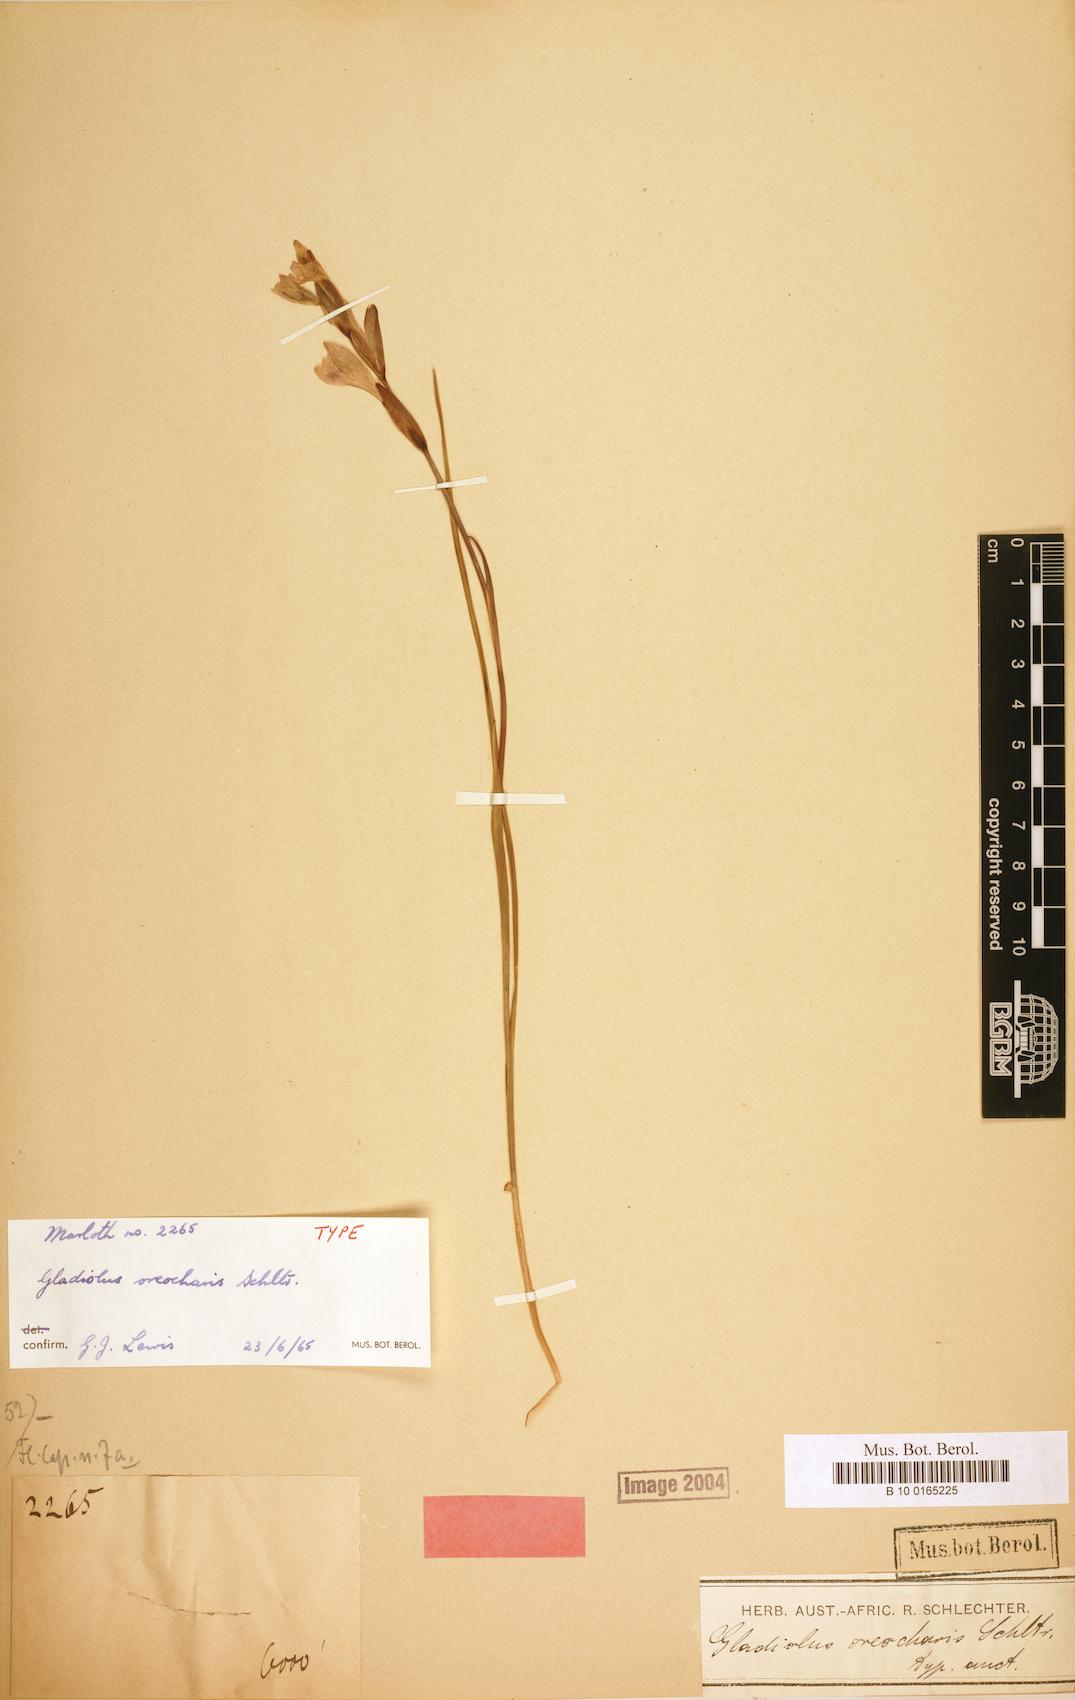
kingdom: Plantae
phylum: Tracheophyta
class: Liliopsida
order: Asparagales
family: Iridaceae
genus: Gladiolus
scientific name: Gladiolus oreocharis
